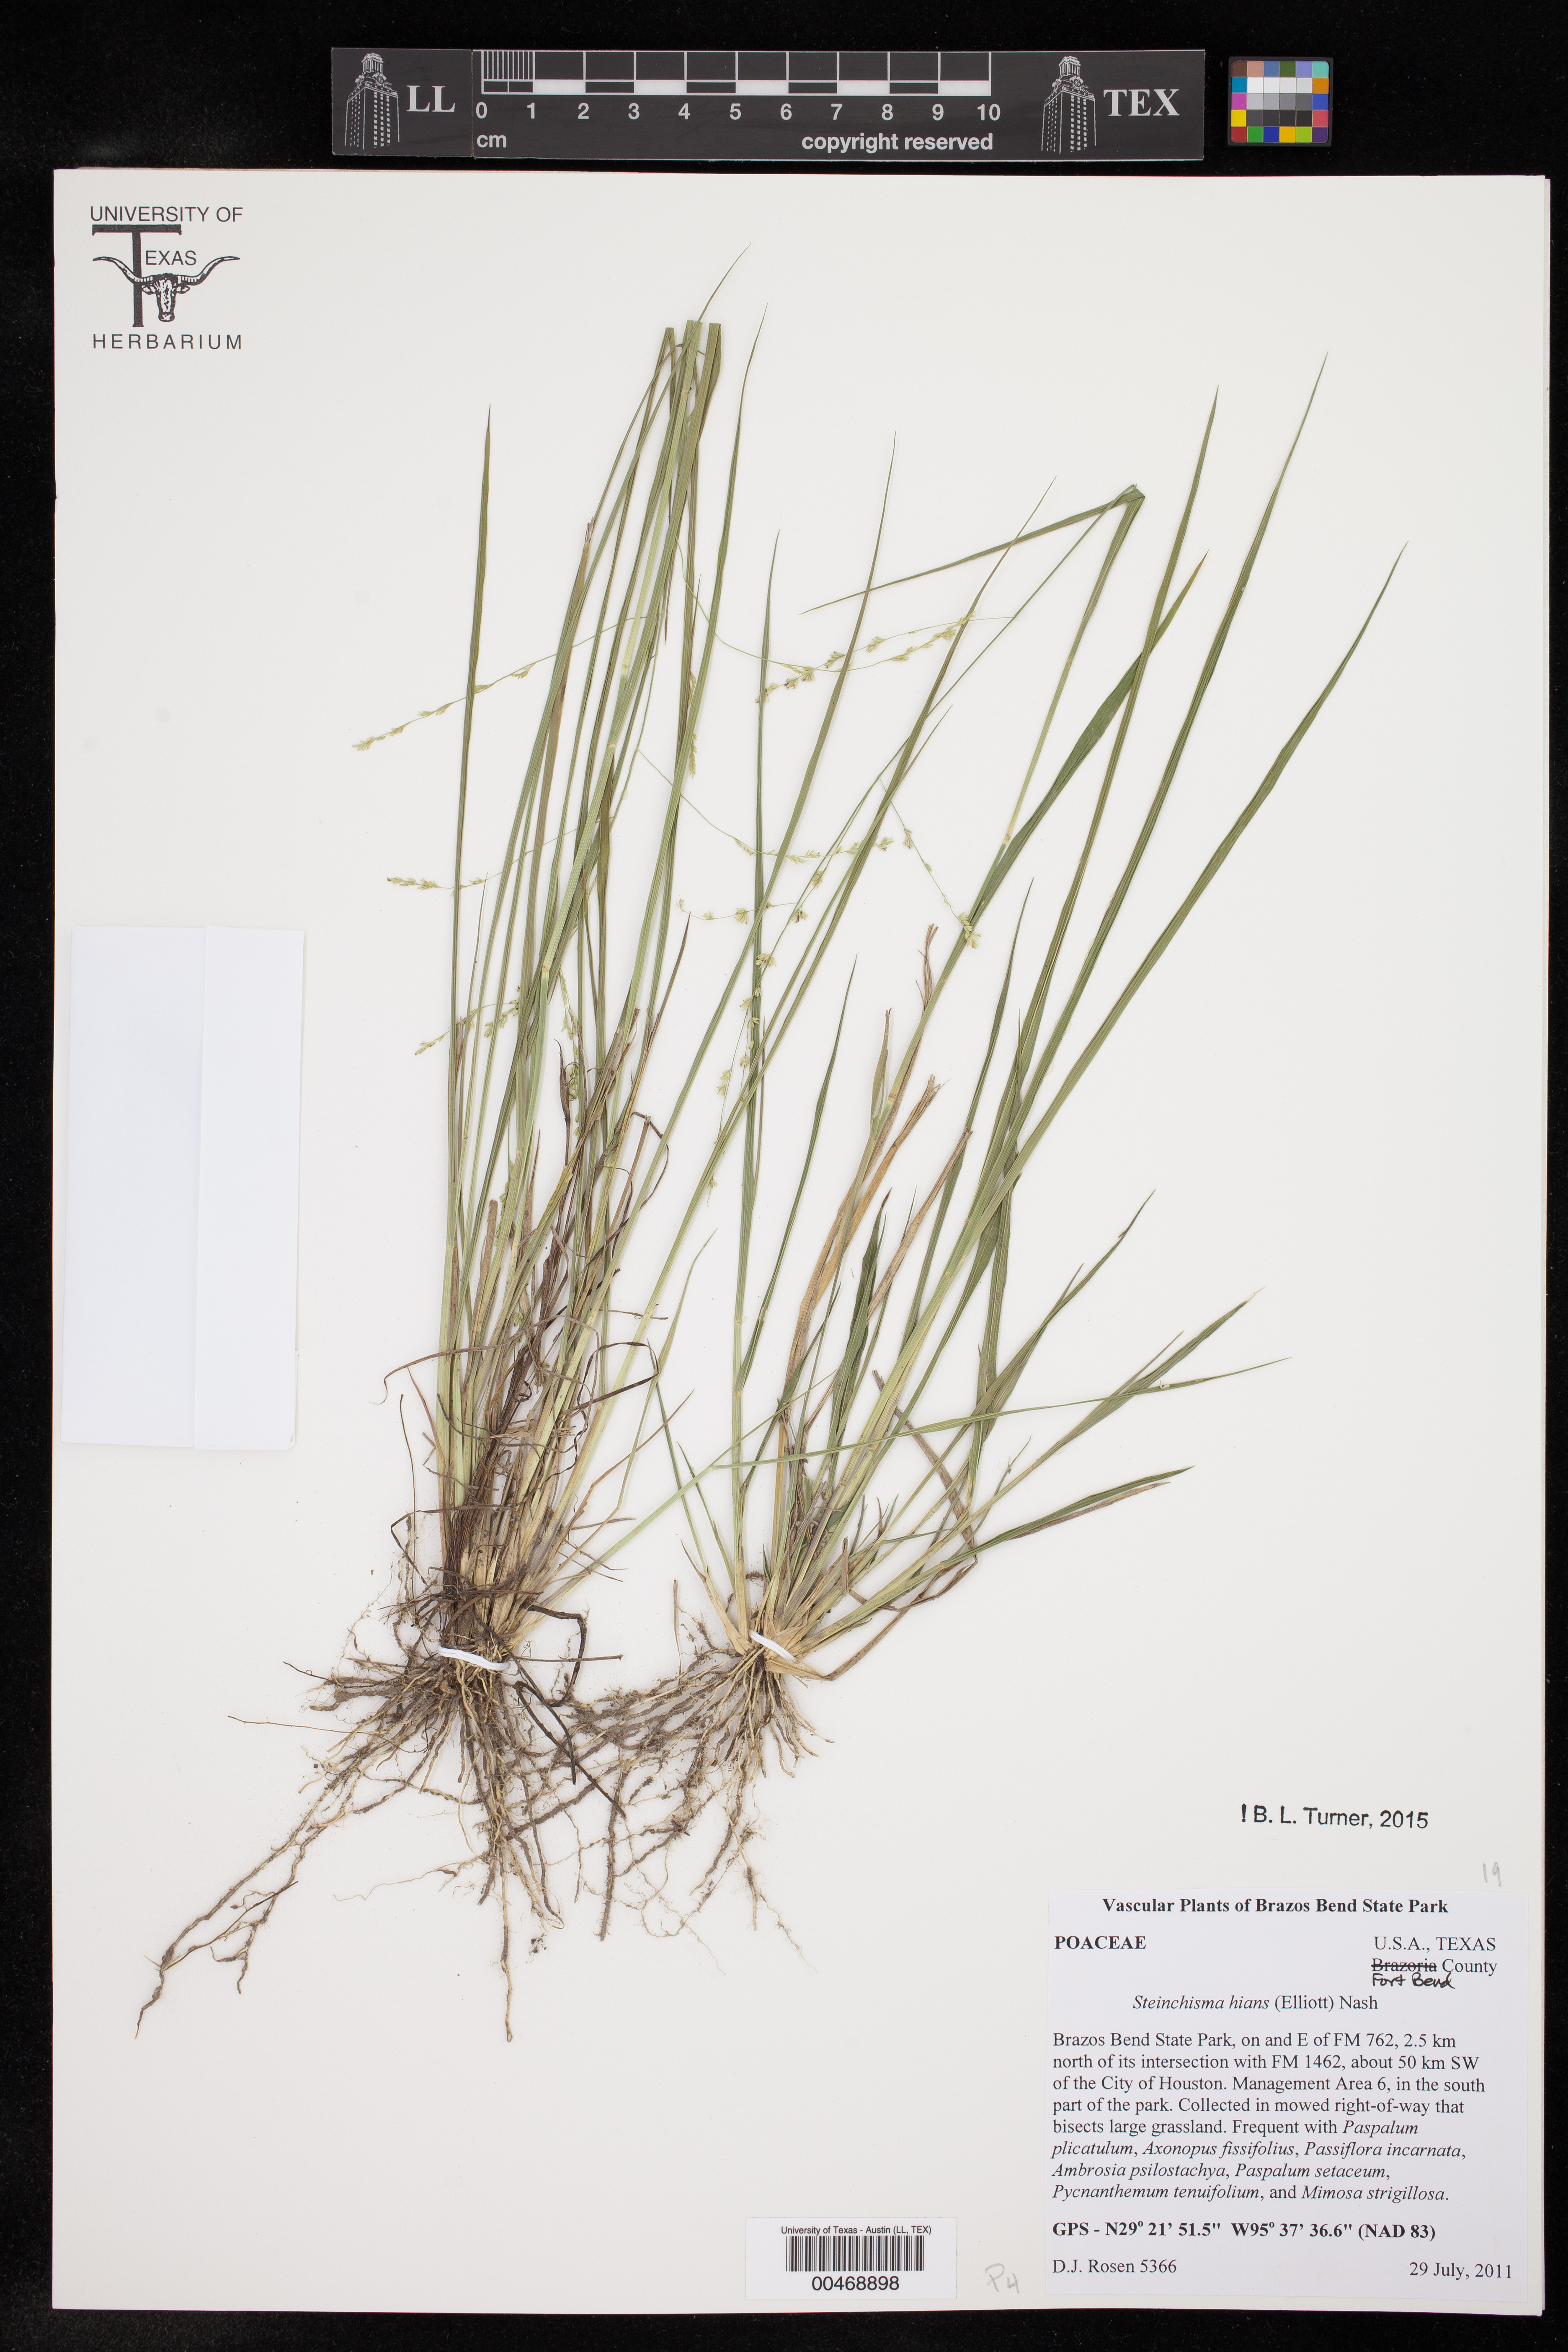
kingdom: Plantae
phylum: Tracheophyta
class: Liliopsida
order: Poales
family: Poaceae
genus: Steinchisma
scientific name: Steinchisma hians
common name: Gaping panic grass
